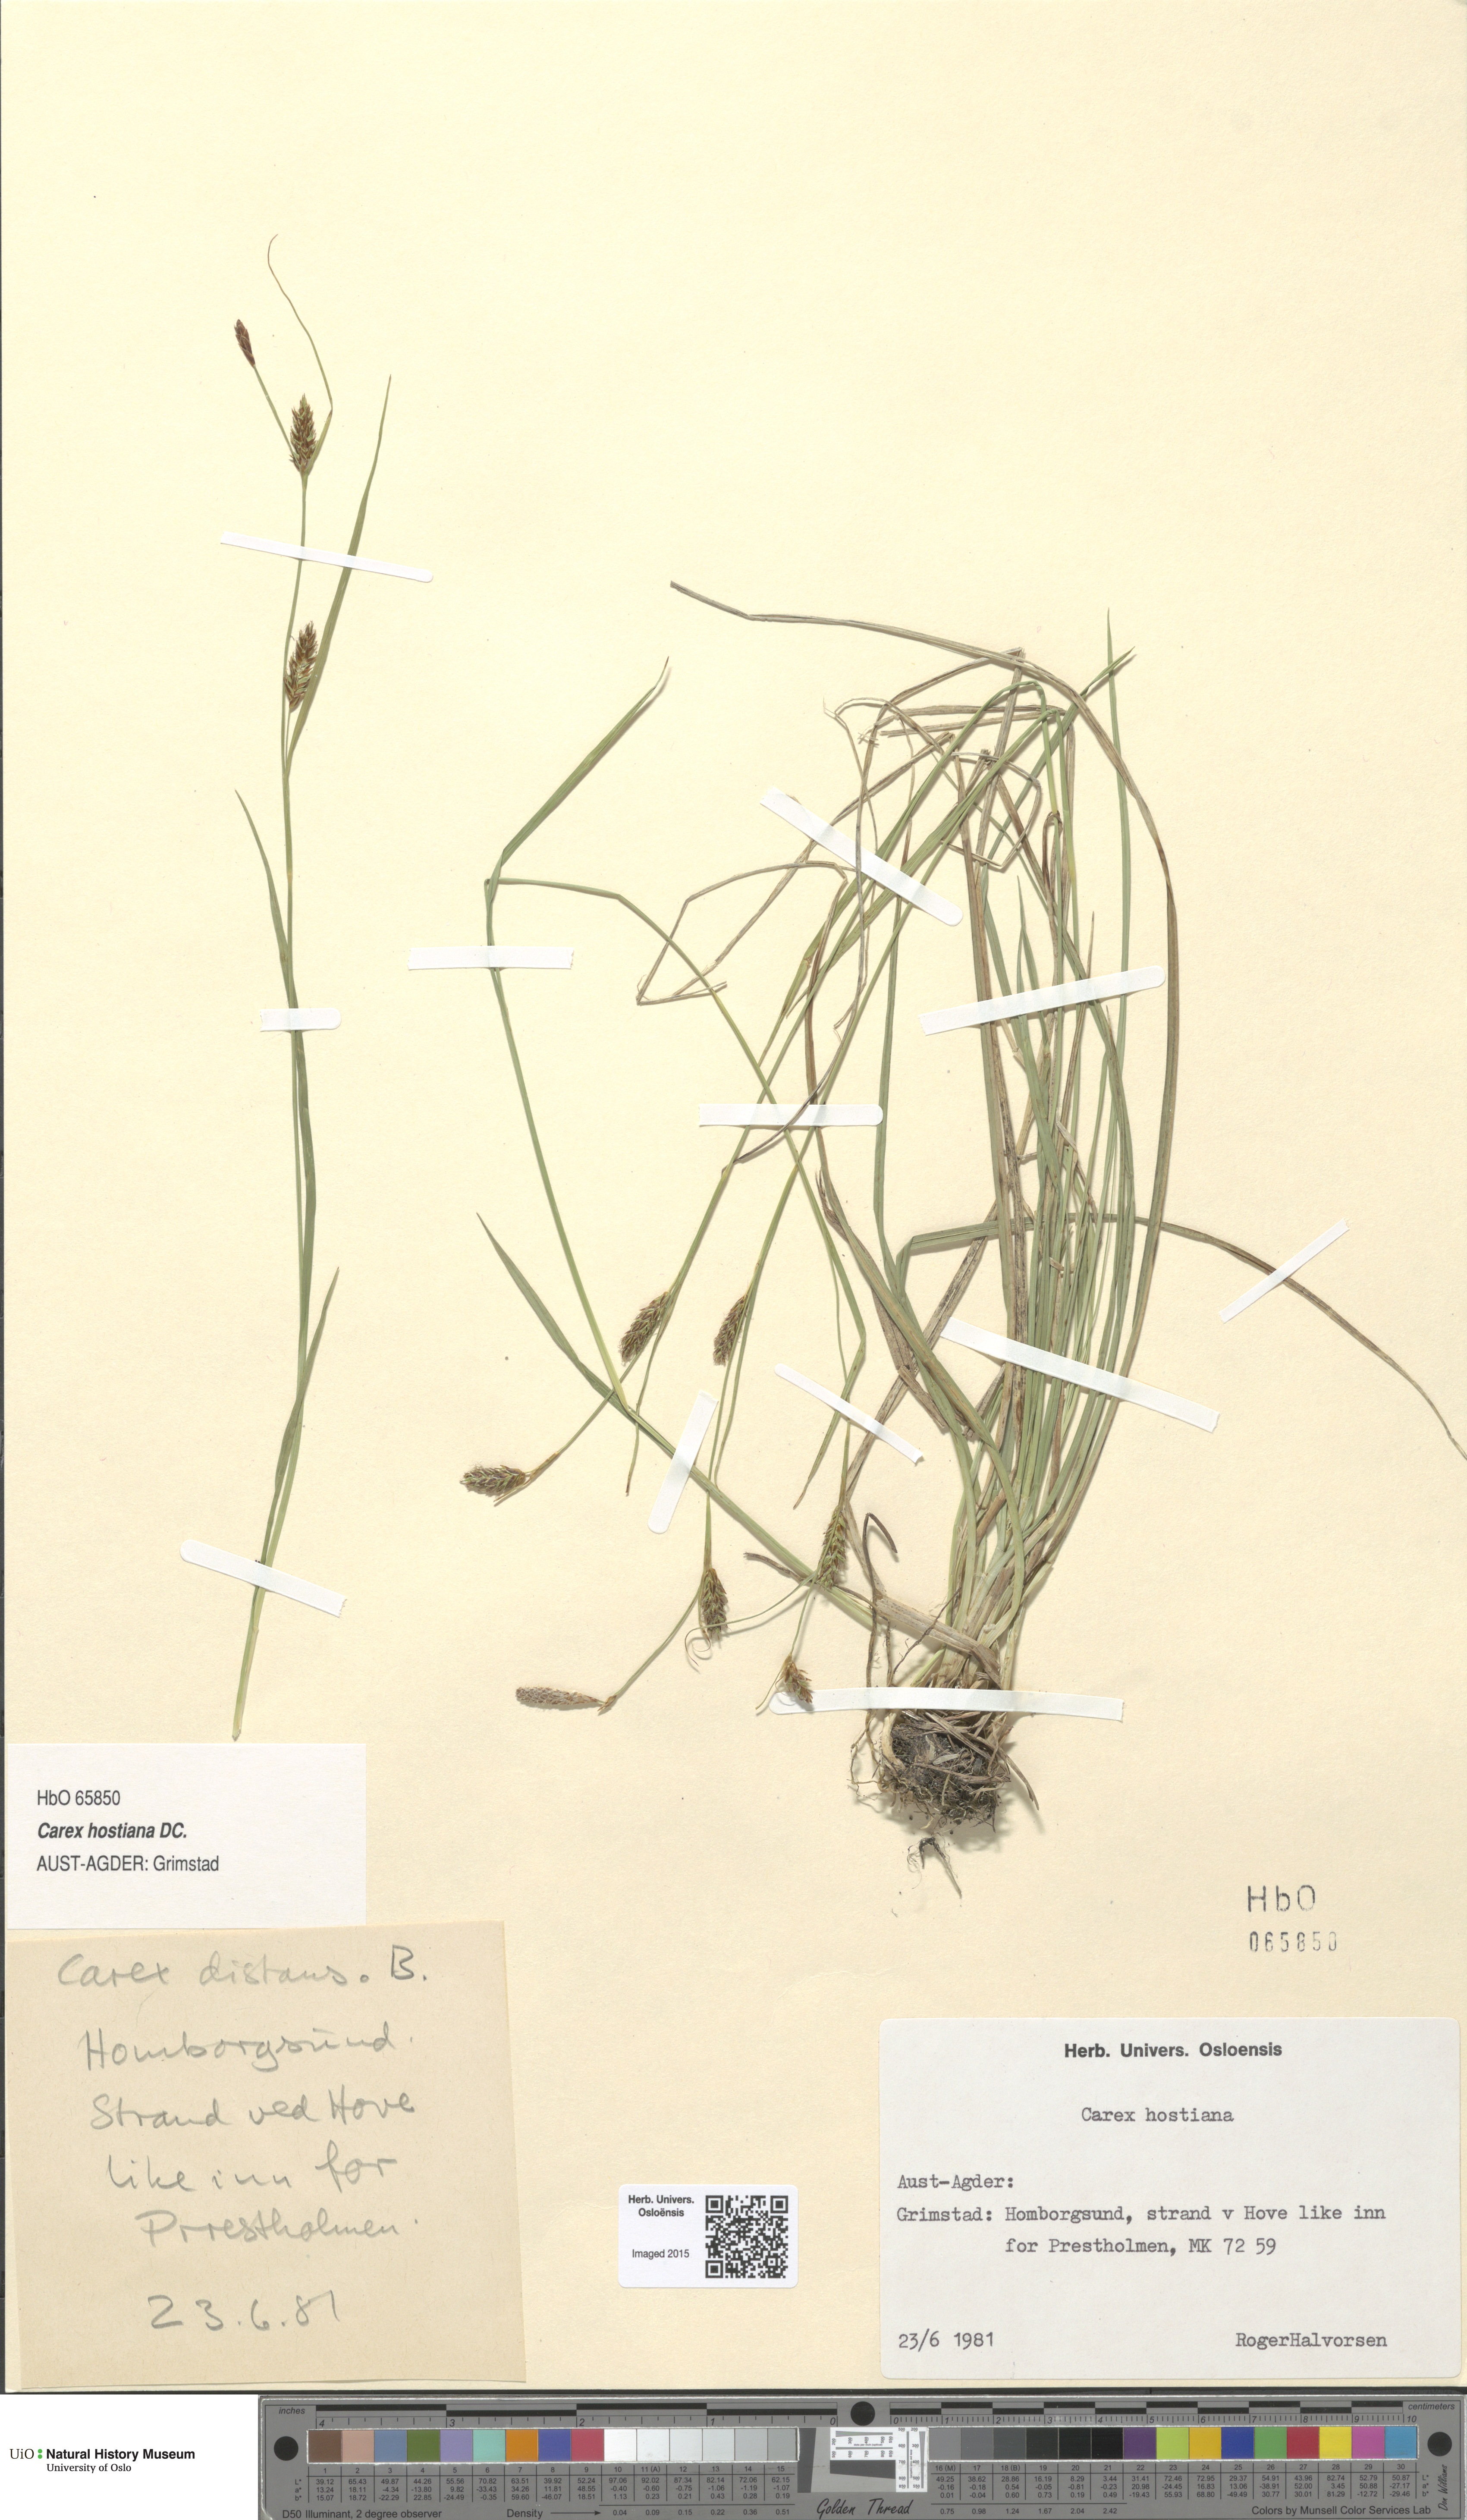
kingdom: Plantae
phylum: Tracheophyta
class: Liliopsida
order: Poales
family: Cyperaceae
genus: Carex
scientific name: Carex hostiana
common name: Tawny sedge
